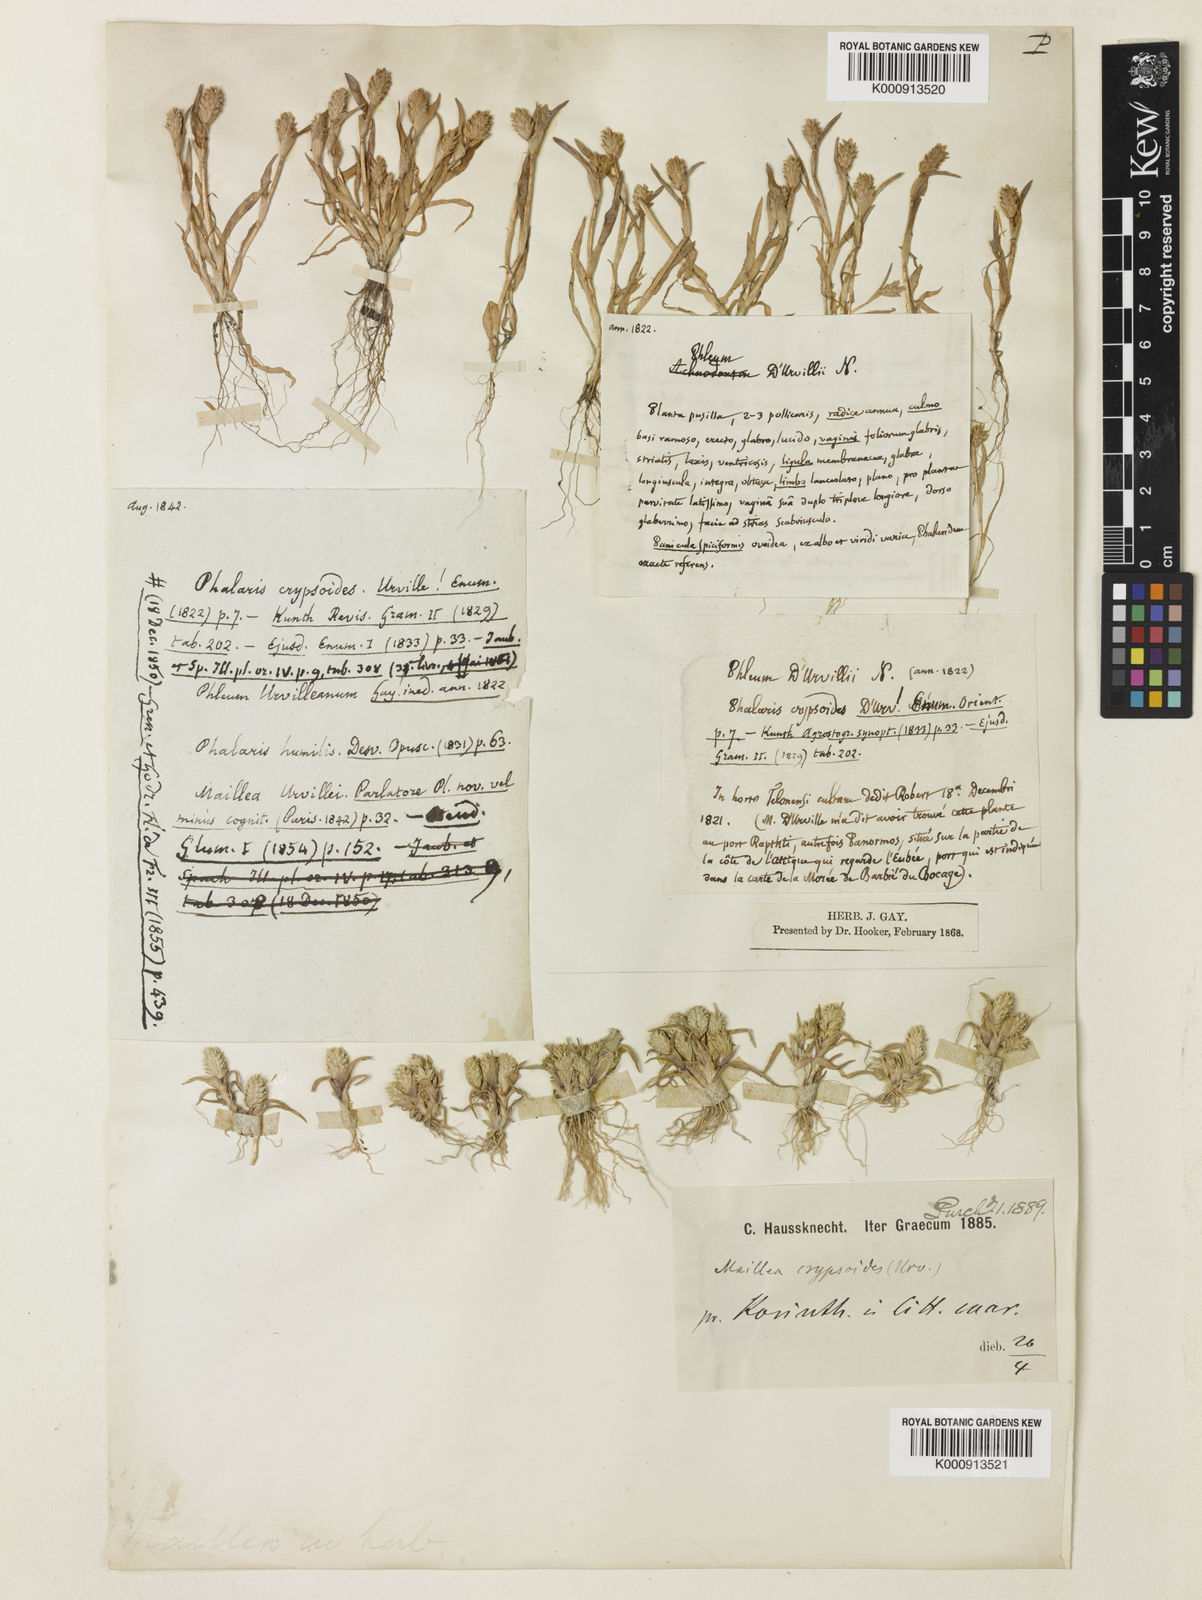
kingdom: Plantae
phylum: Tracheophyta
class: Liliopsida
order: Poales
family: Poaceae
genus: Phleum
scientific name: Phleum crypsoides
